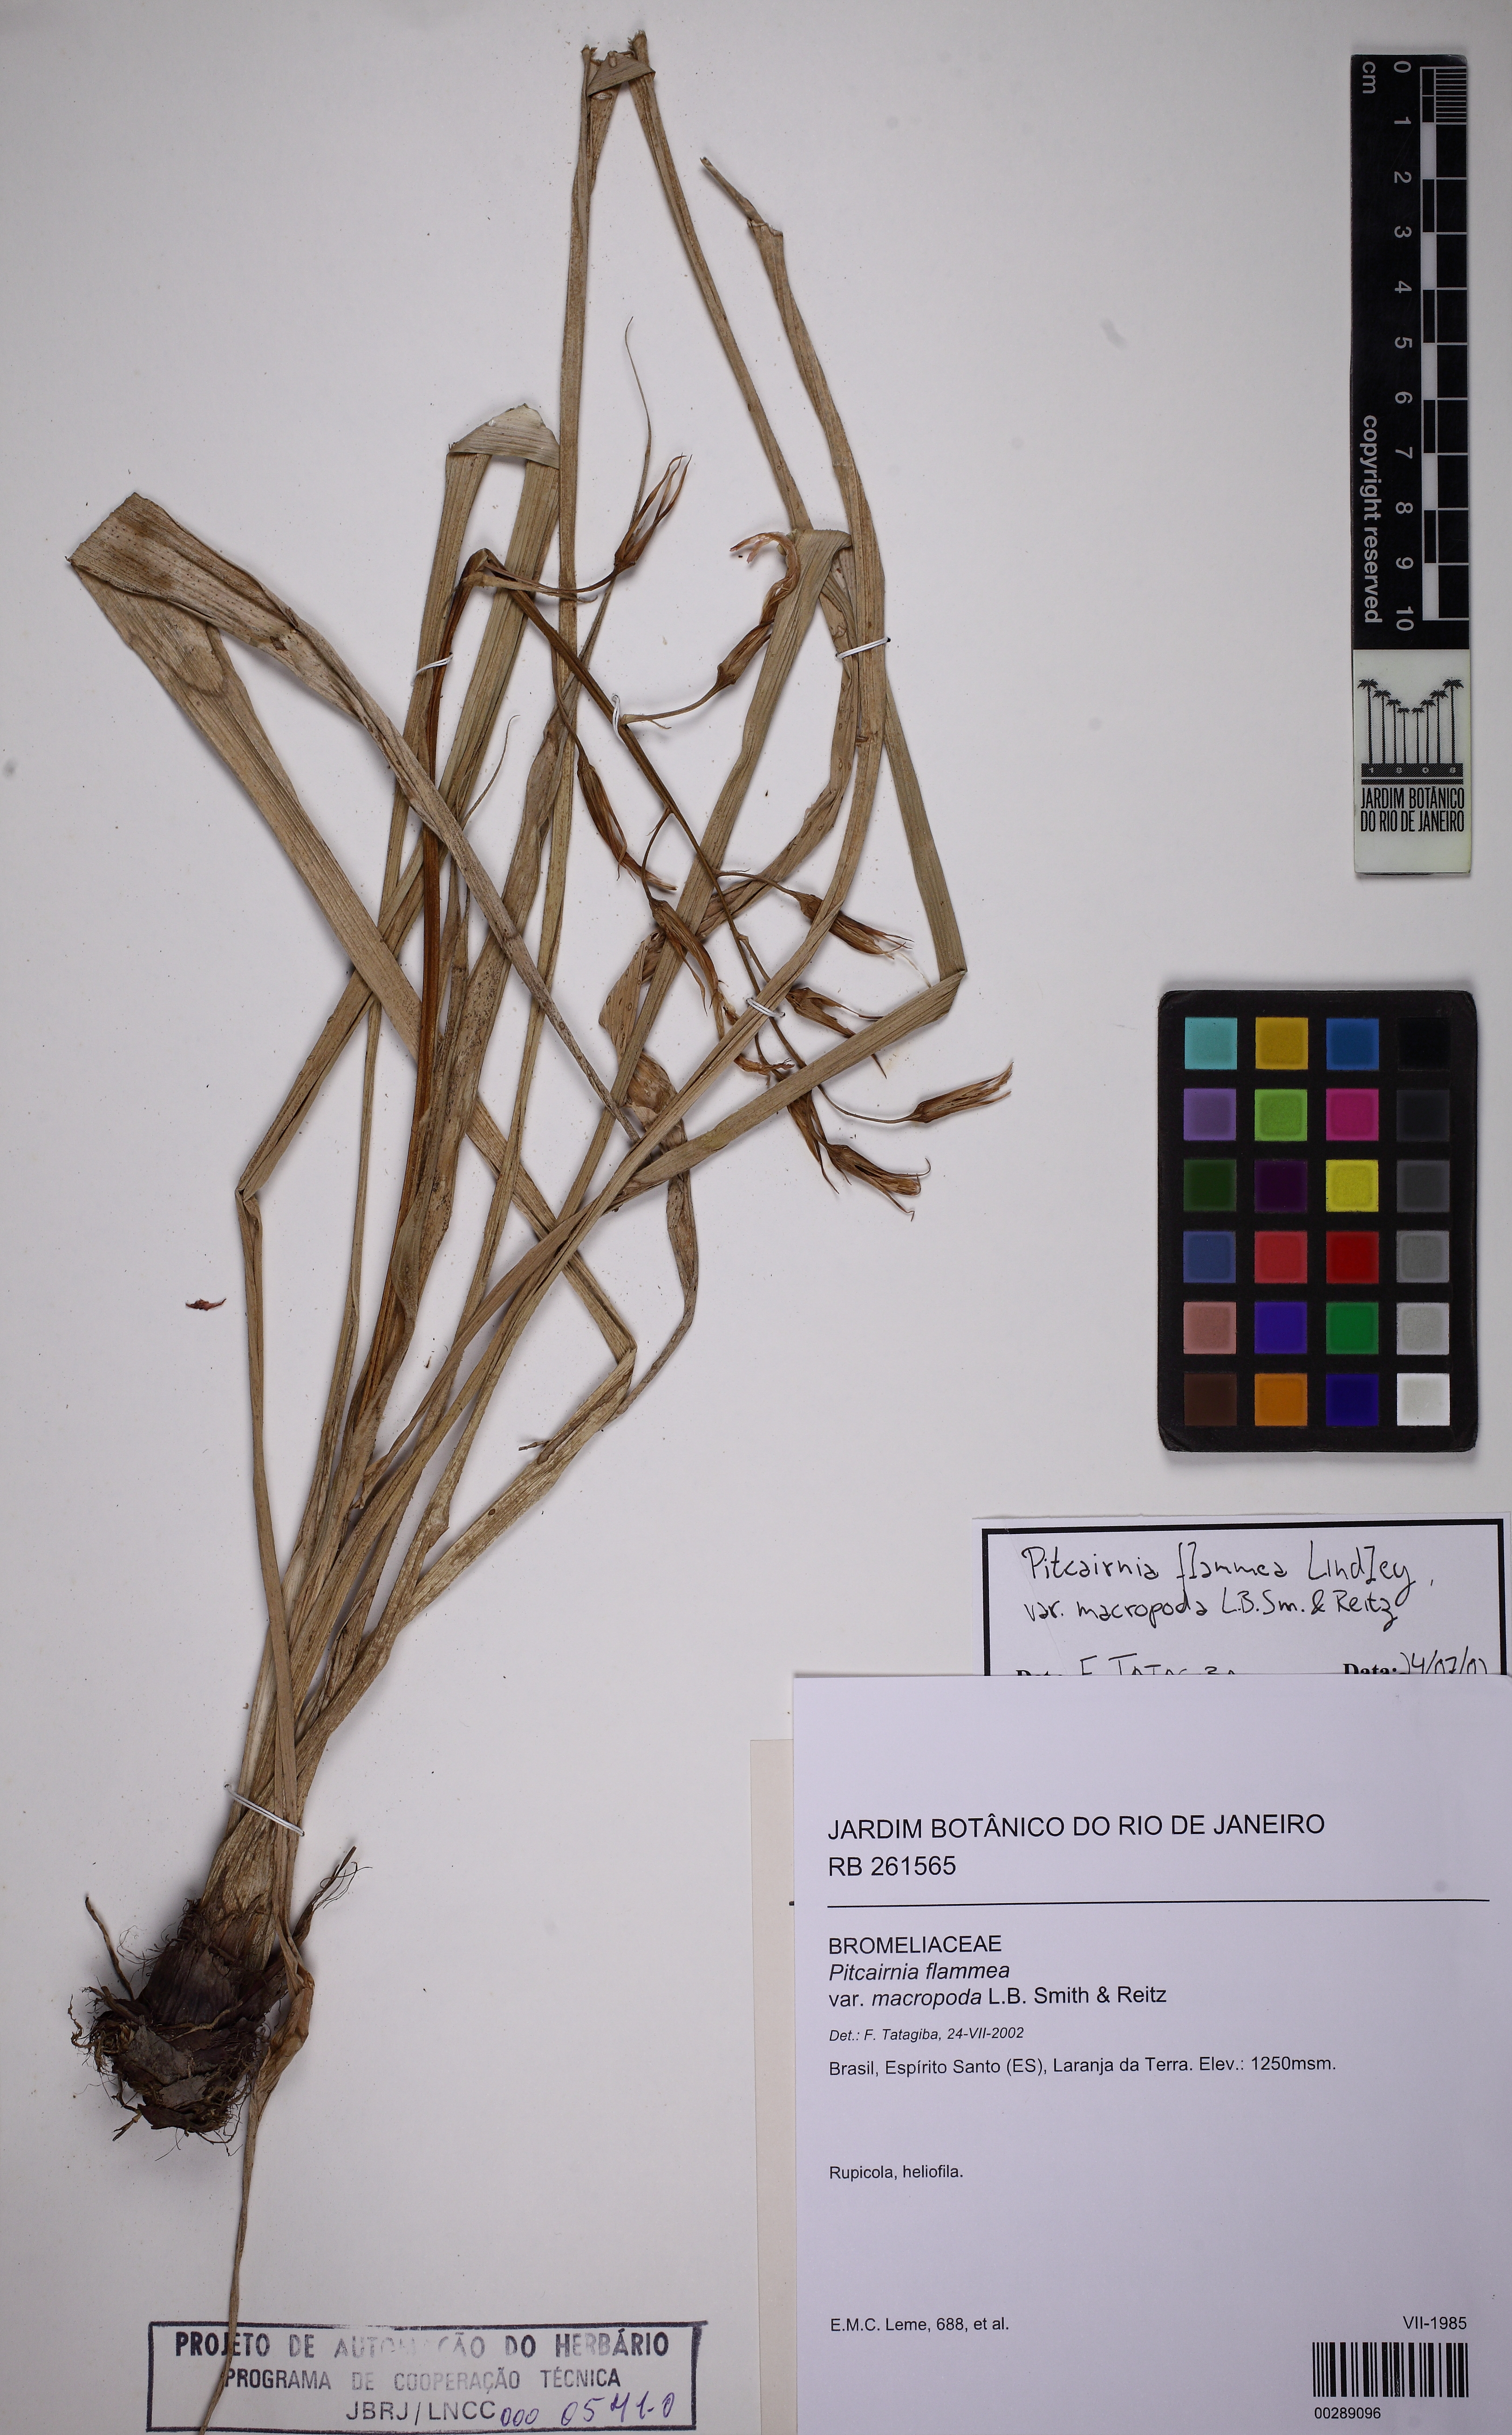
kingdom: Plantae
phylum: Tracheophyta
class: Liliopsida
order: Poales
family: Bromeliaceae
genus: Pitcairnia
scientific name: Pitcairnia flammea
